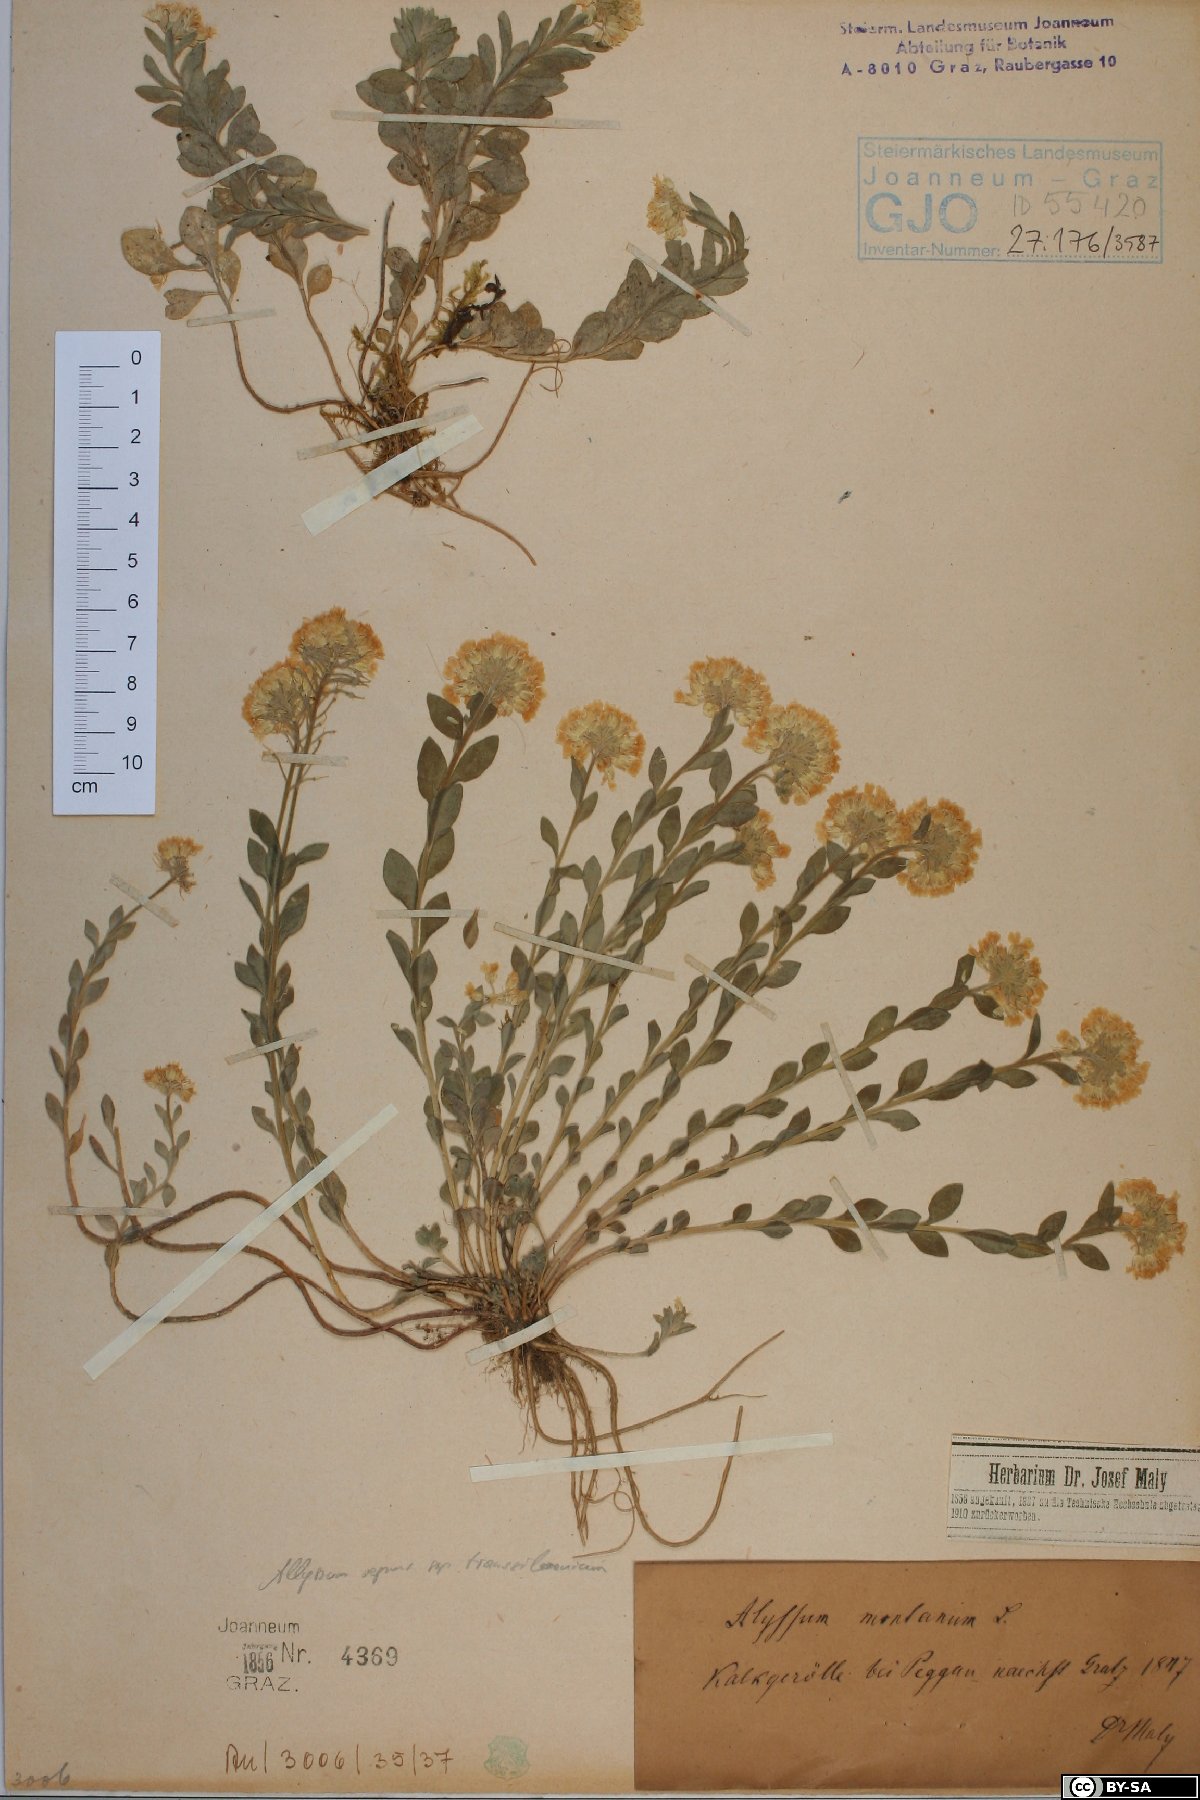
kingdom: Plantae
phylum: Tracheophyta
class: Magnoliopsida
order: Brassicales
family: Brassicaceae
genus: Alyssum
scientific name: Alyssum montanum
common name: Mountain alison
